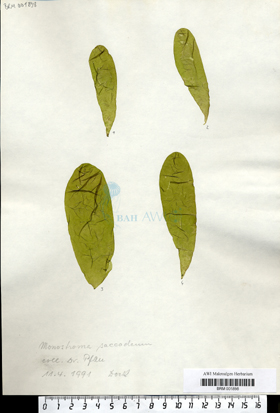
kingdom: Plantae
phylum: Chlorophyta
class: Ulvophyceae
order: Ulvales
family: Monostromataceae
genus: Monostroma
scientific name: Monostroma saccodeum
